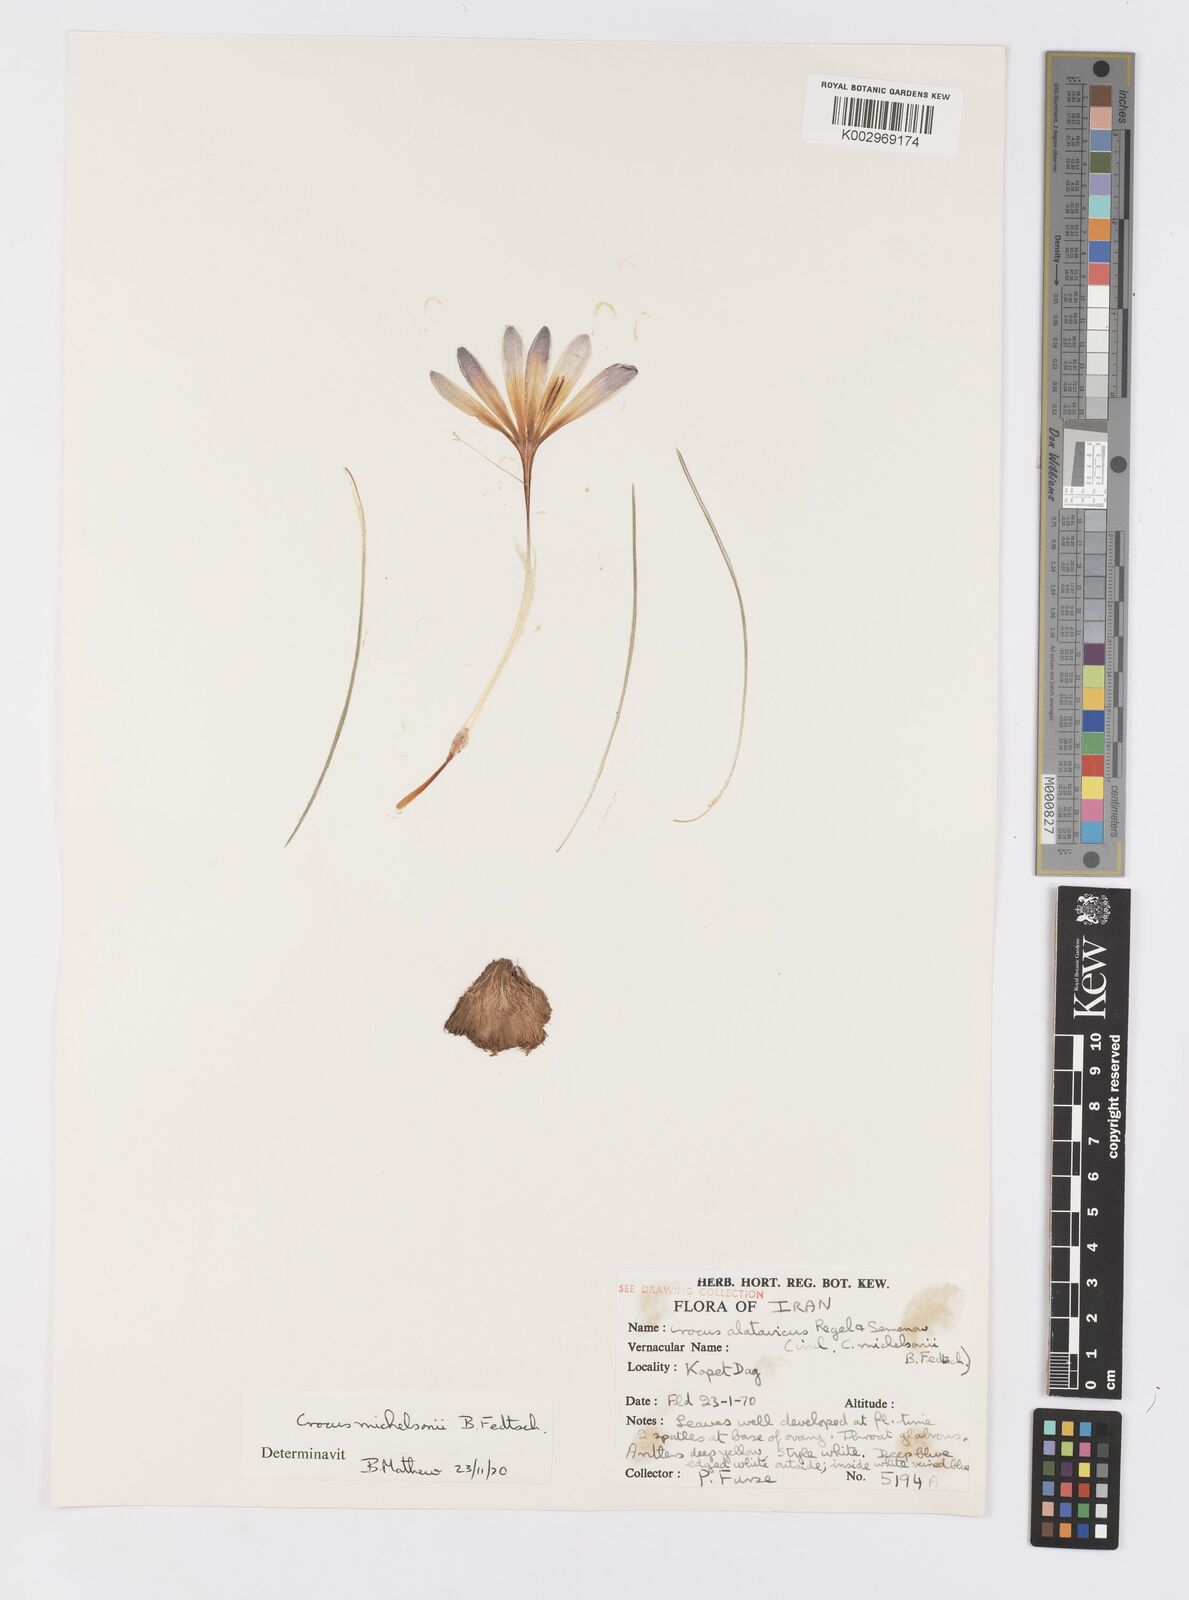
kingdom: Plantae
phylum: Tracheophyta
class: Liliopsida
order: Asparagales
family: Iridaceae
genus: Crocus
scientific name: Crocus michelsonii
